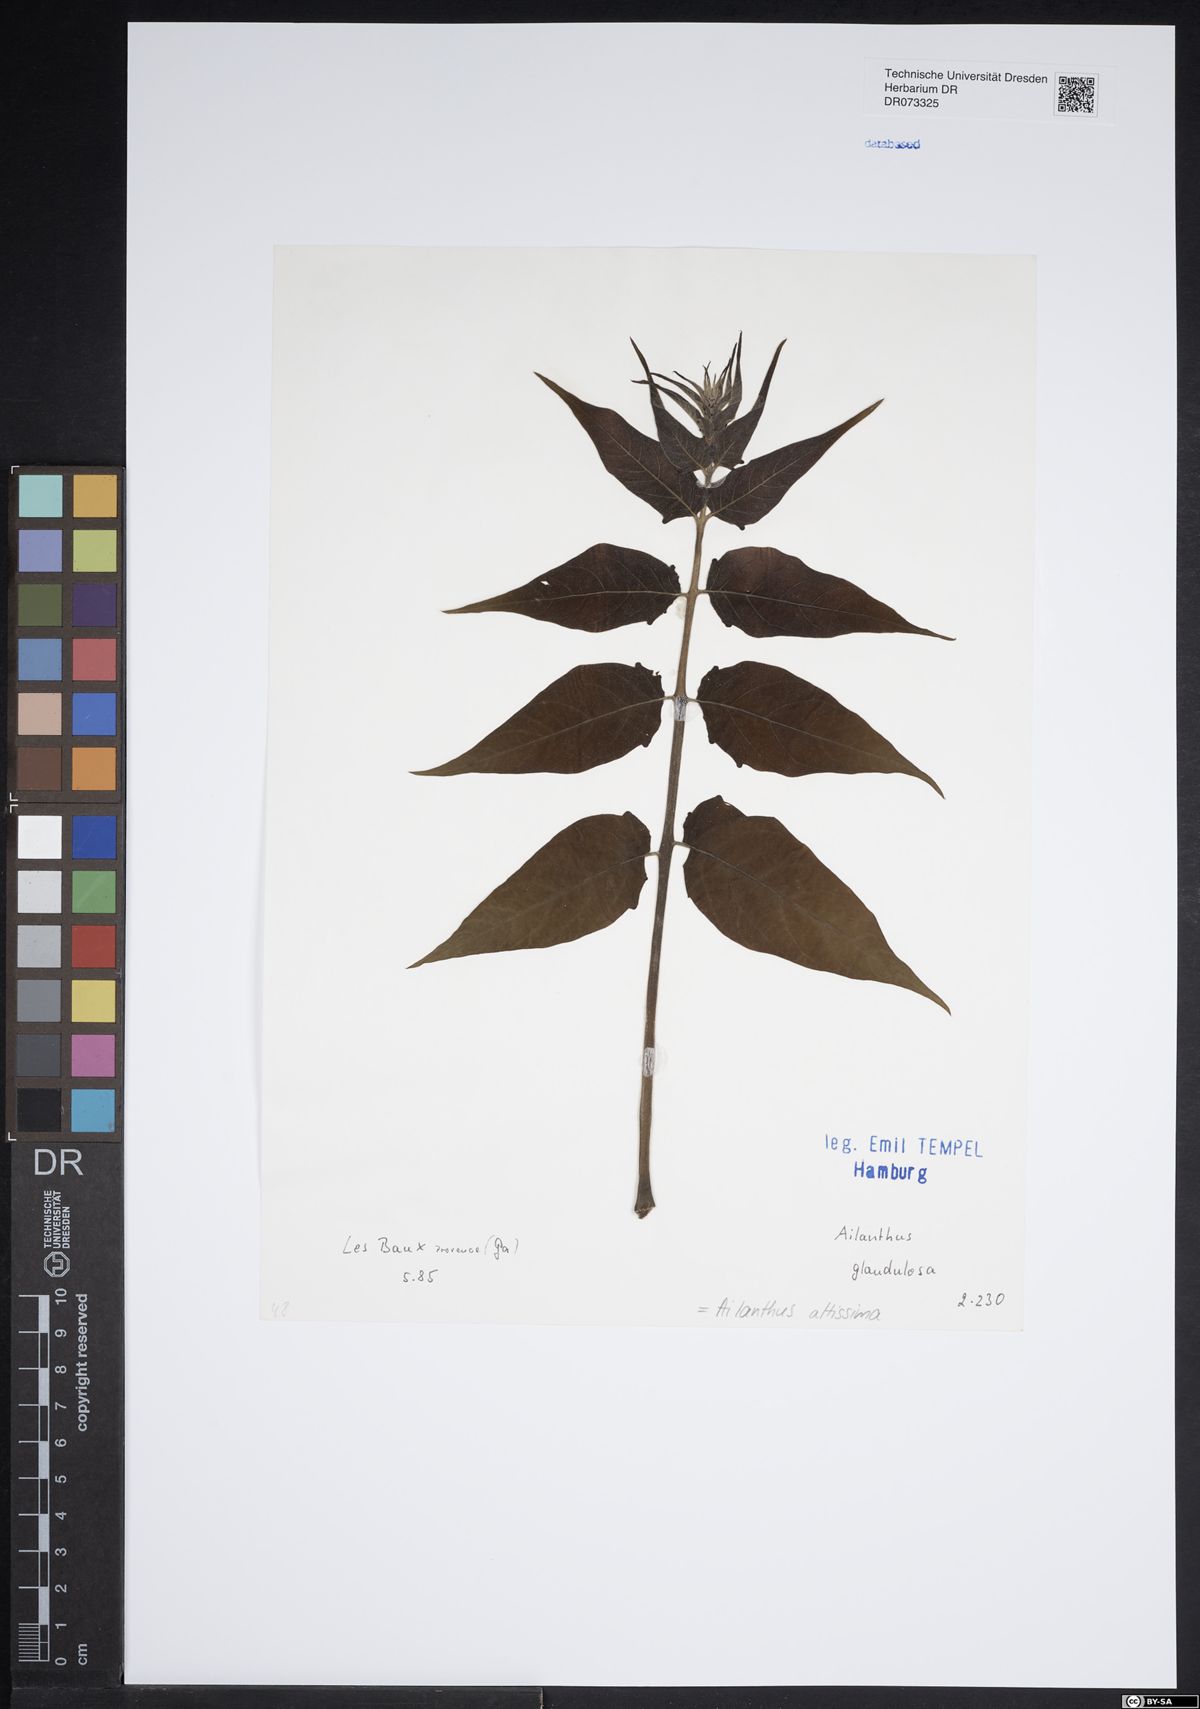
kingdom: Plantae
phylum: Tracheophyta
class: Magnoliopsida
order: Sapindales
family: Simaroubaceae
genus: Ailanthus
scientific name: Ailanthus altissima
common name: Tree-of-heaven
